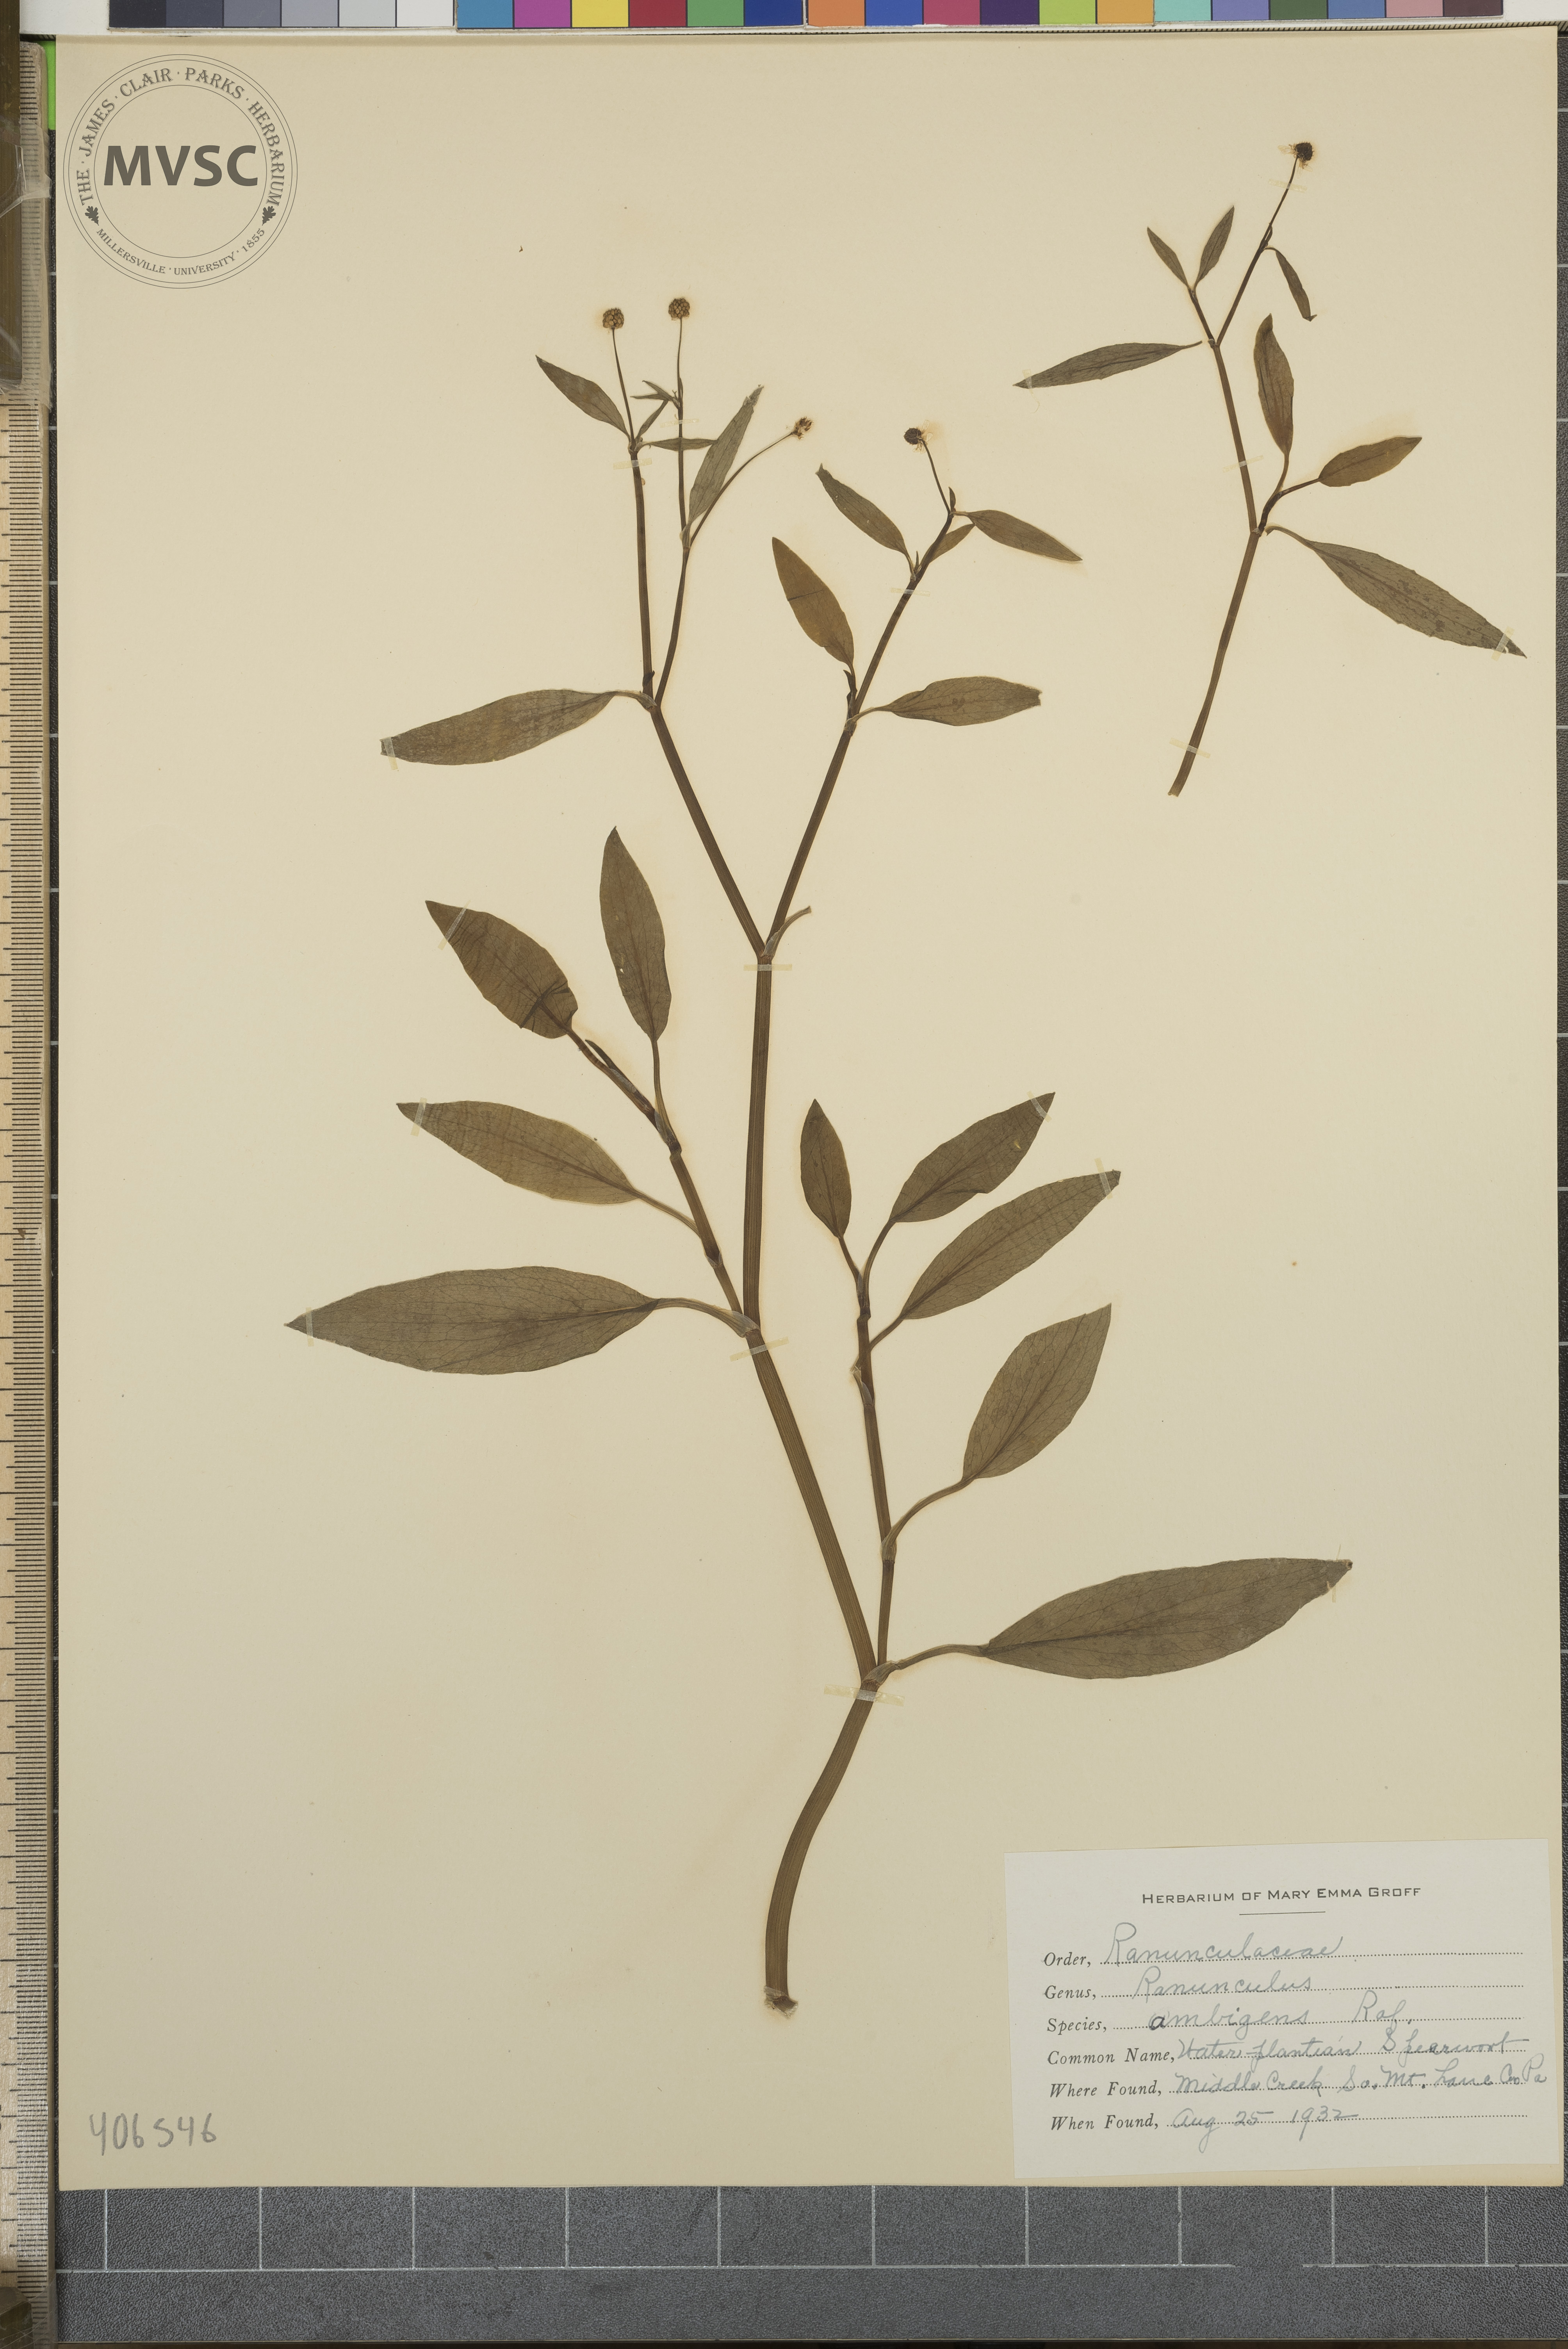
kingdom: Plantae
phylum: Tracheophyta
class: Magnoliopsida
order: Ranunculales
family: Ranunculaceae
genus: Ranunculus
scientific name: Ranunculus ambigens
